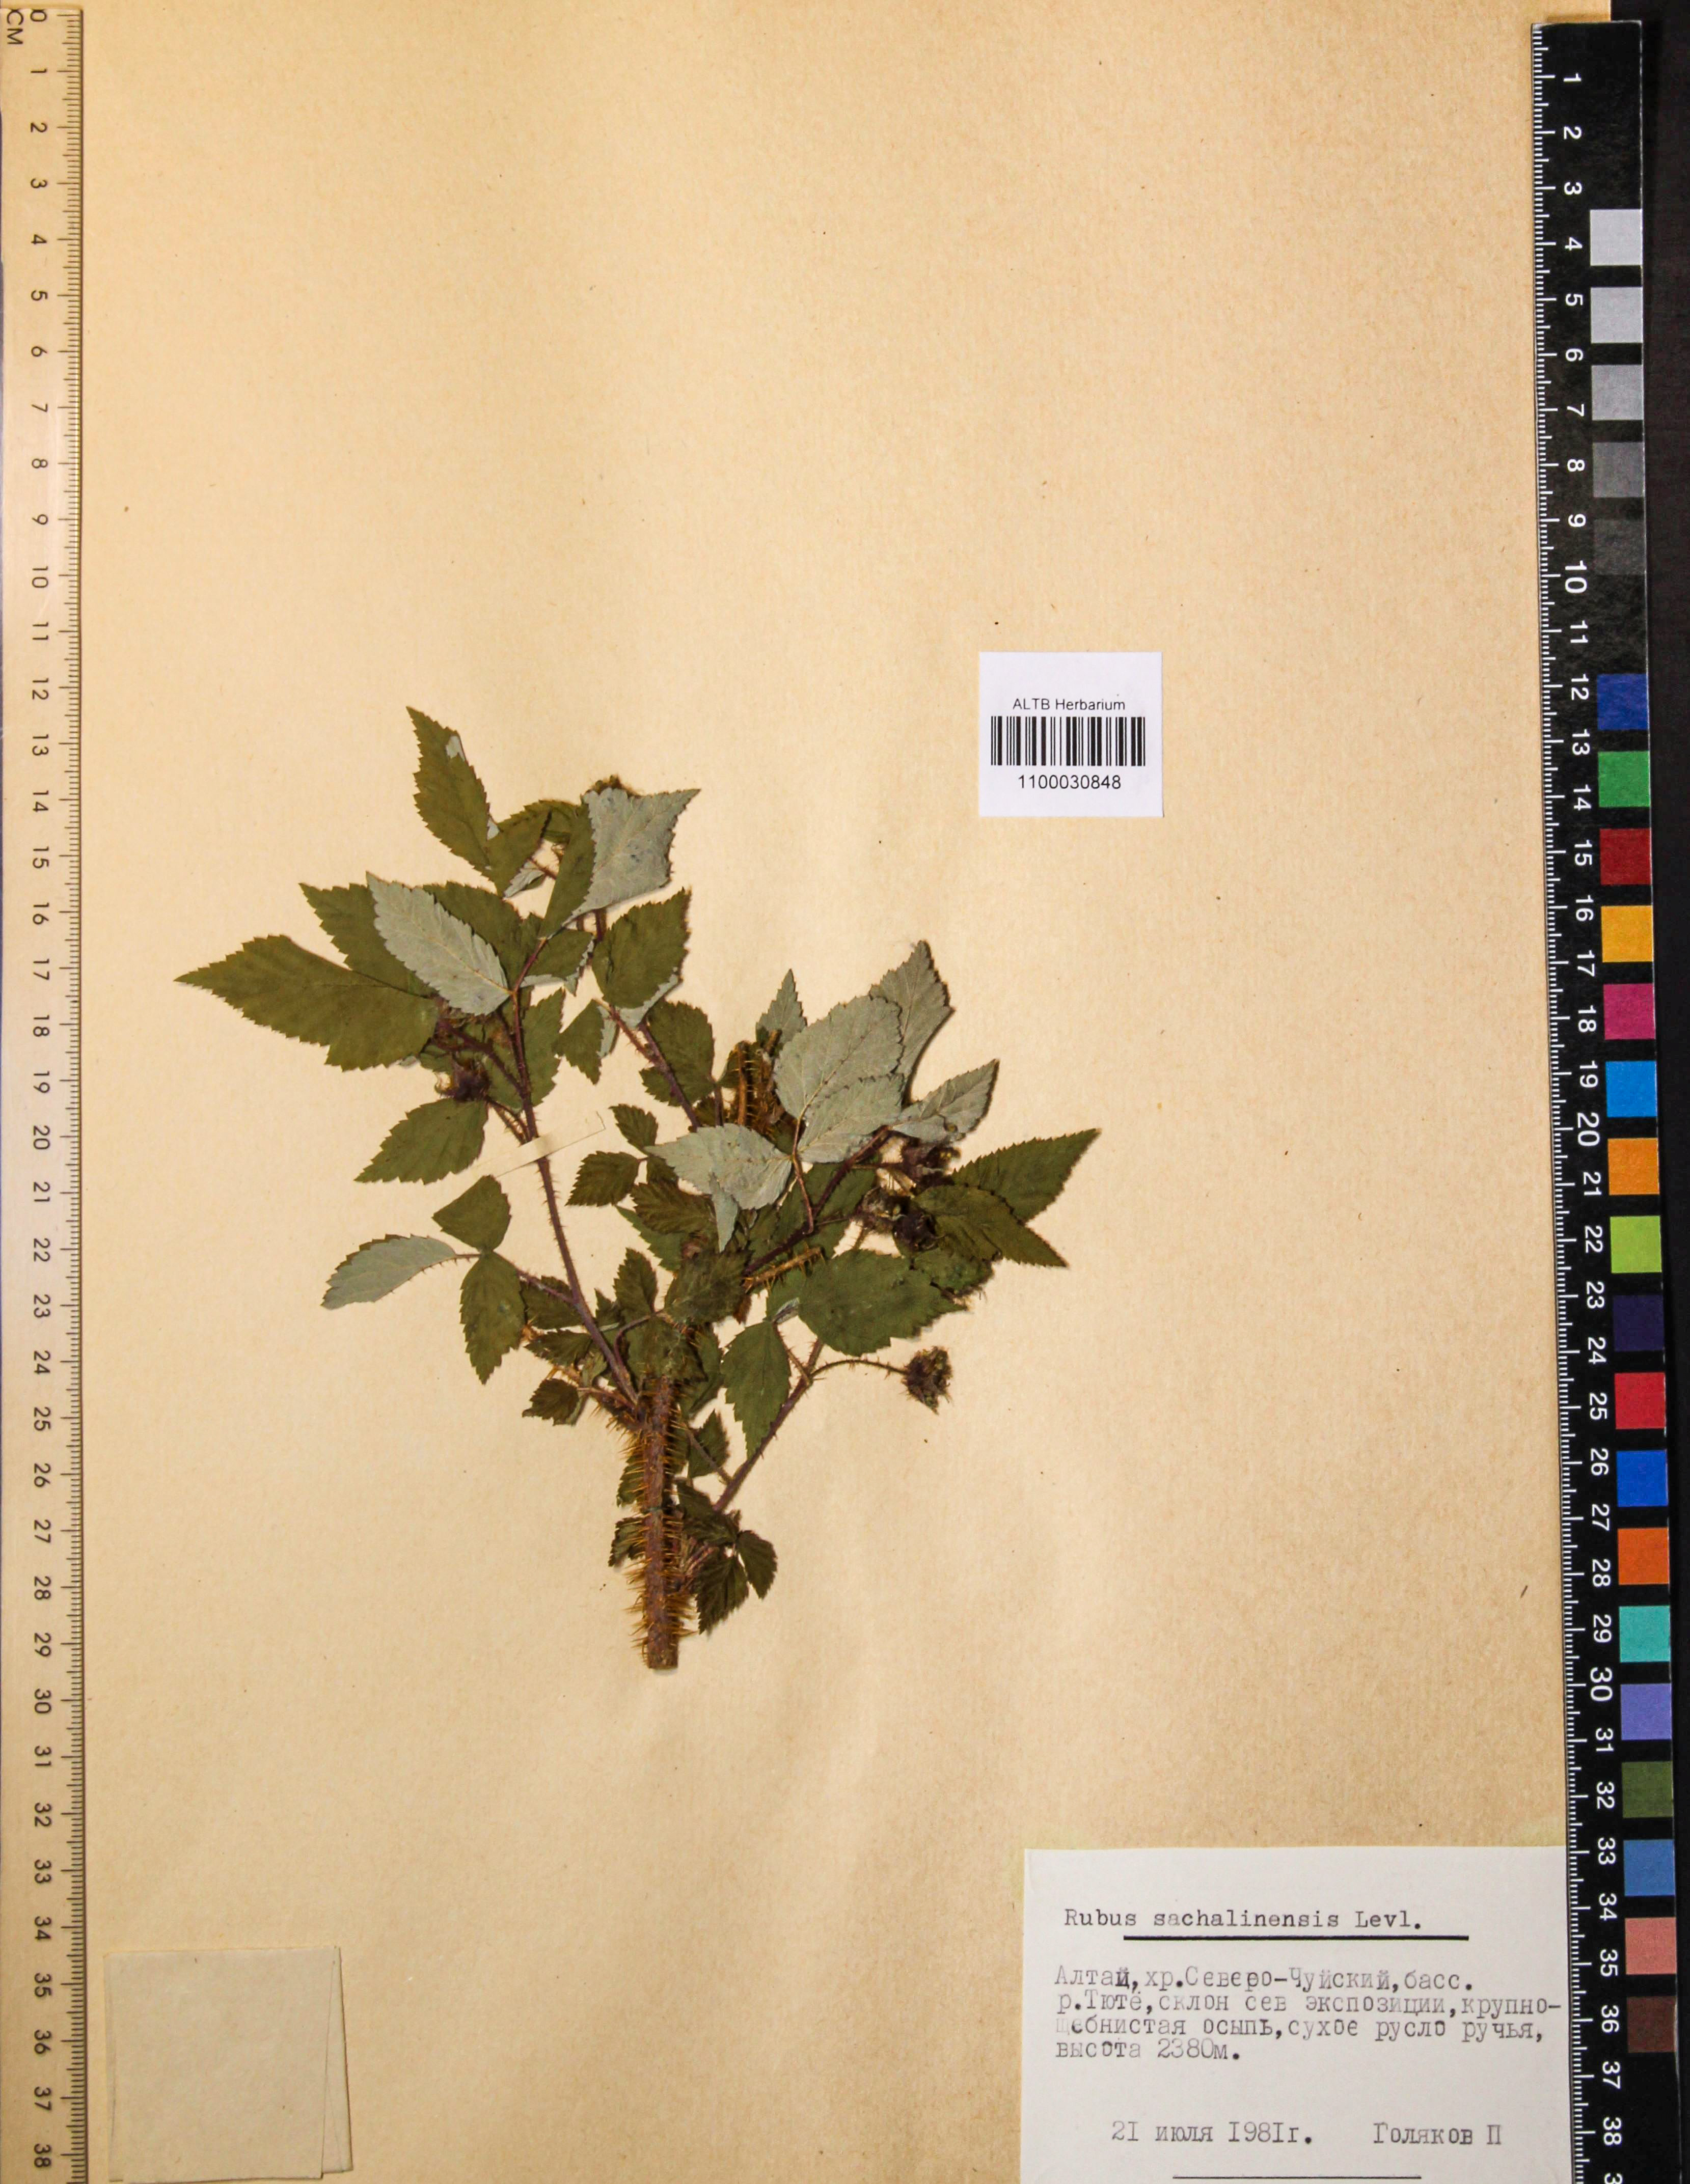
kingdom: Plantae
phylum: Tracheophyta
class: Magnoliopsida
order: Rosales
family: Rosaceae
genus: Rubus
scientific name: Rubus sachalinensis
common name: Red raspberry
